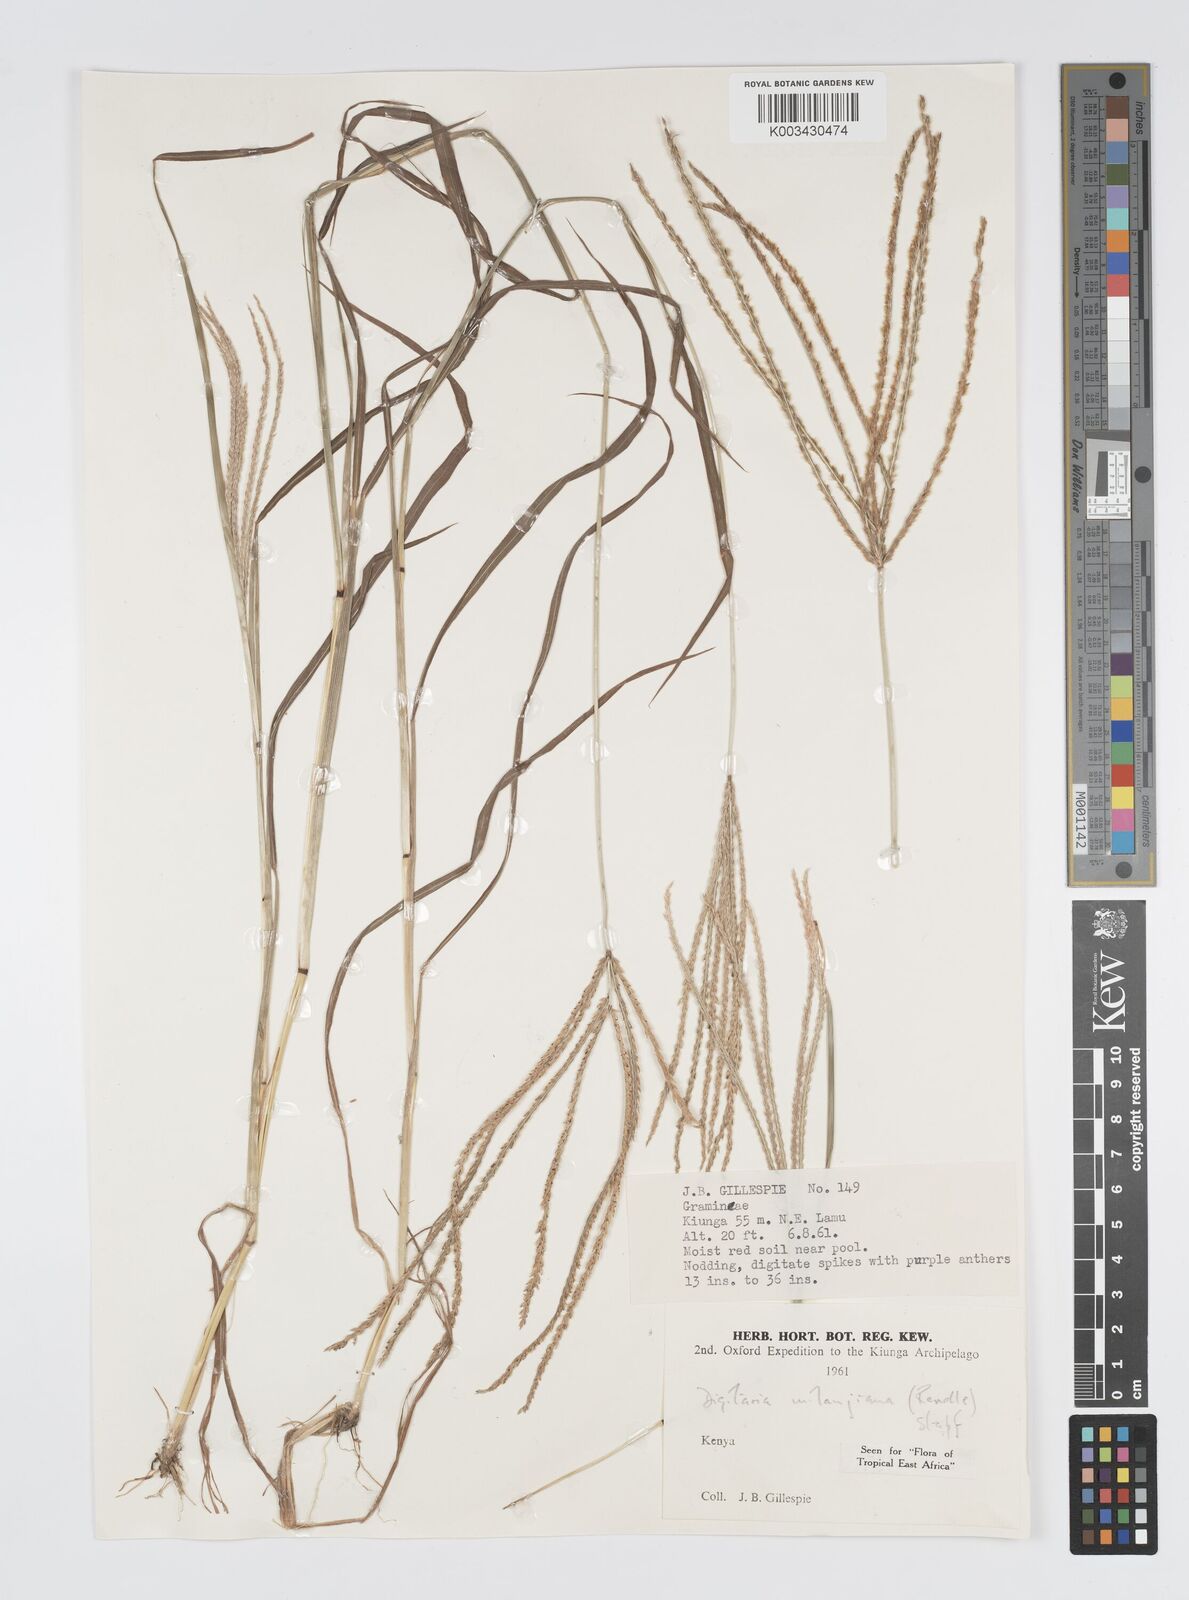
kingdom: Plantae
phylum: Tracheophyta
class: Liliopsida
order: Poales
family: Poaceae
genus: Digitaria
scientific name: Digitaria milanjiana
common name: Madagascar crabgrass
